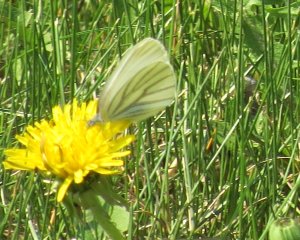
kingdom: Animalia
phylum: Arthropoda
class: Insecta
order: Lepidoptera
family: Pieridae
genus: Pieris
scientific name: Pieris oleracea
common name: Mustard White
